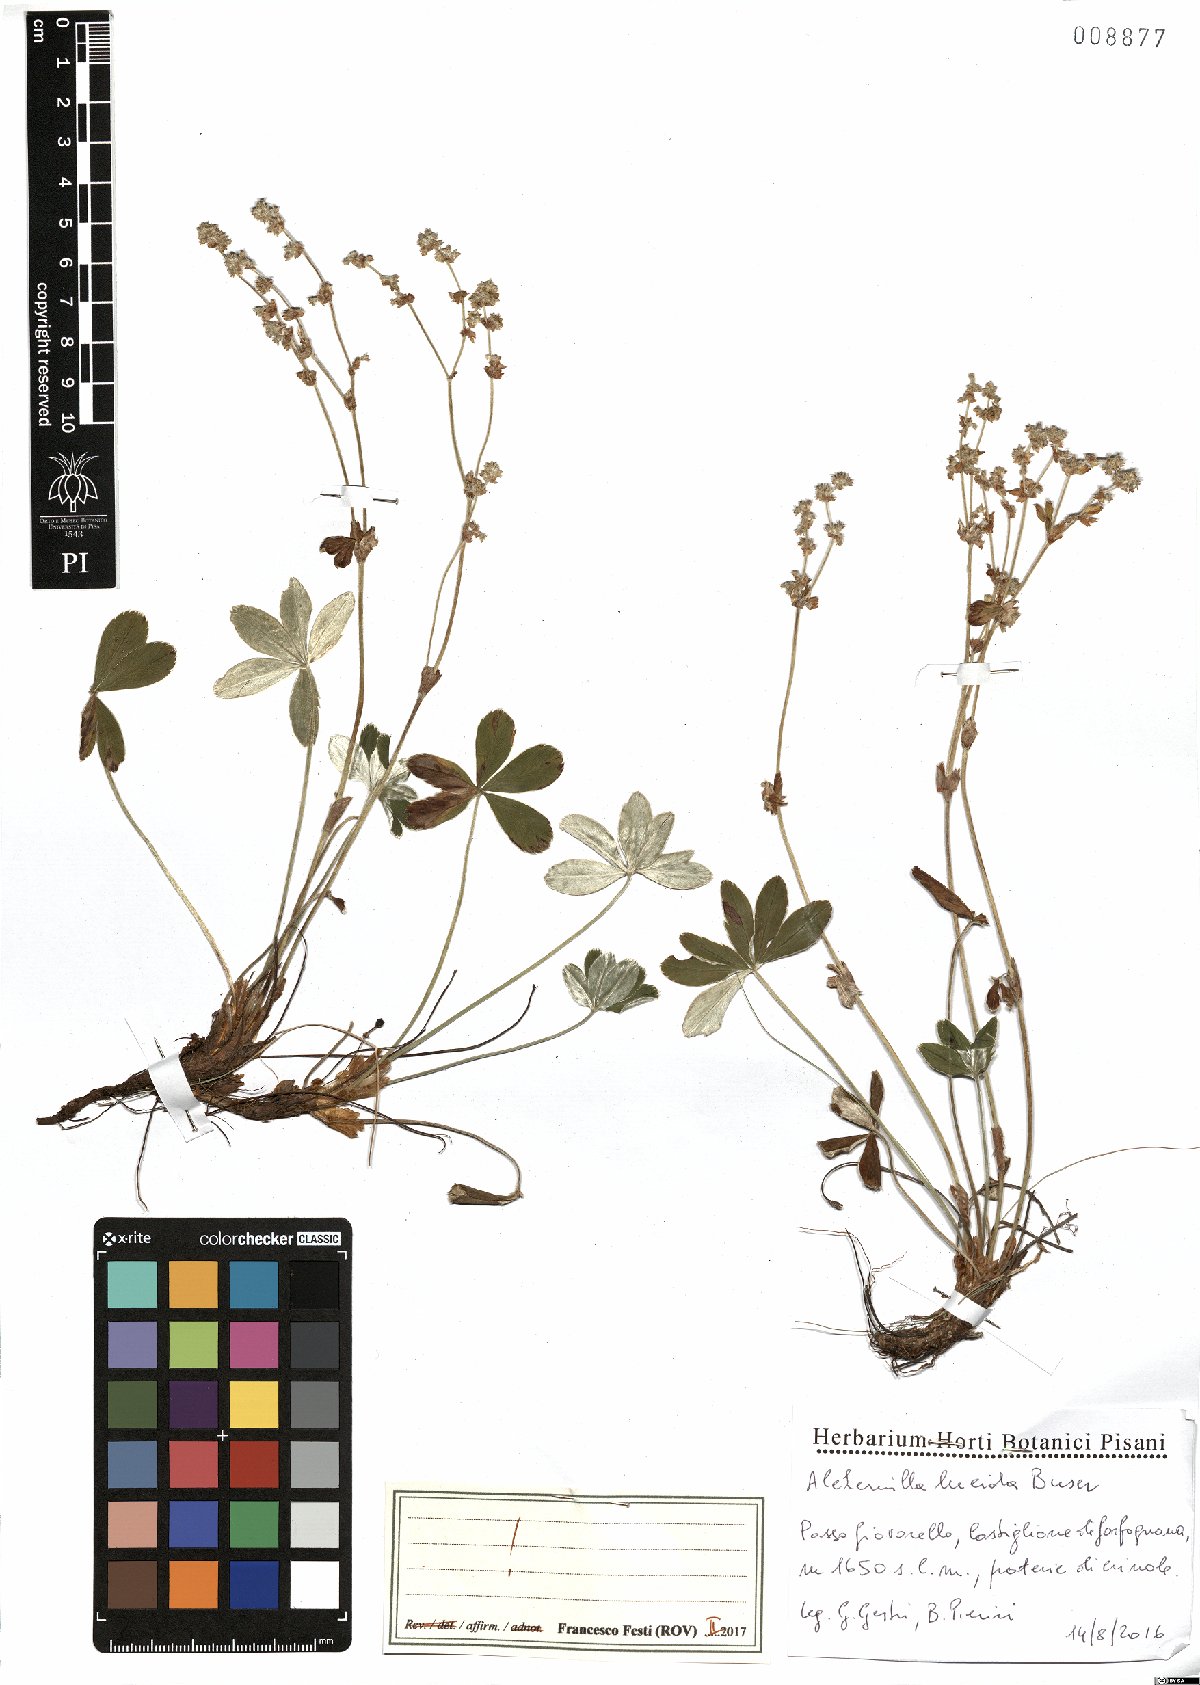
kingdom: Plantae
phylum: Tracheophyta
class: Magnoliopsida
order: Rosales
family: Rosaceae
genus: Alchemilla
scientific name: Alchemilla lucida
